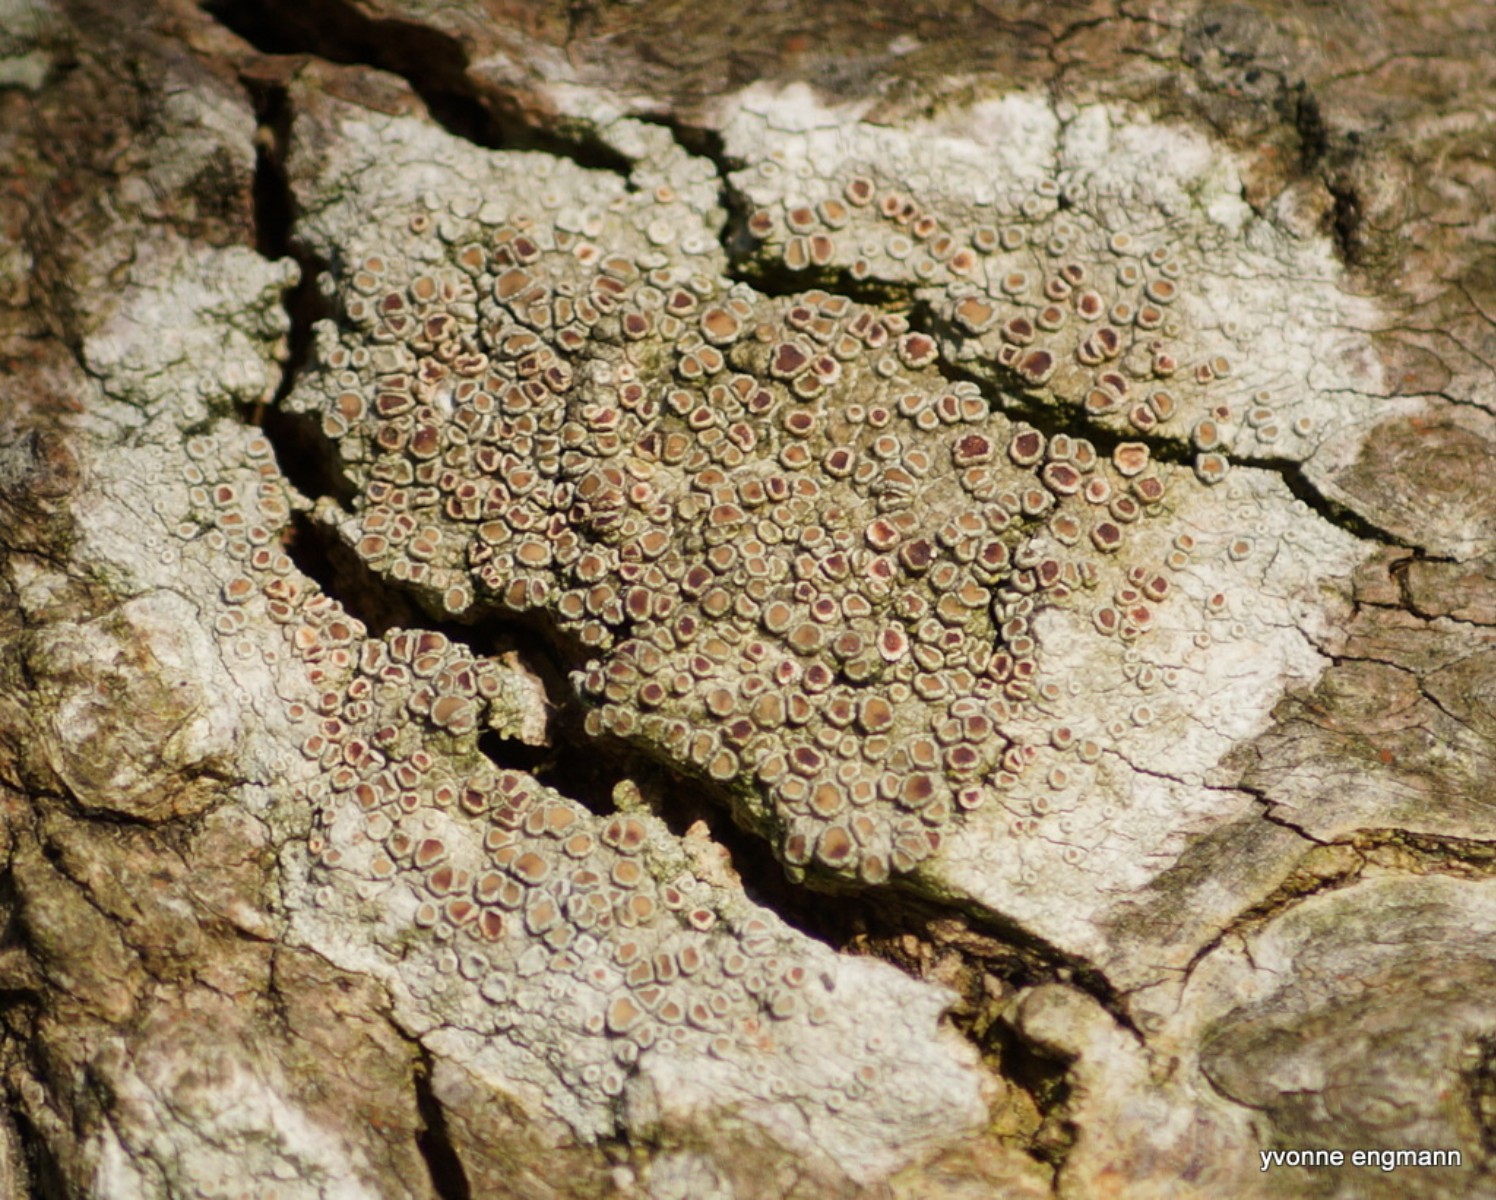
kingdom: Fungi
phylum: Ascomycota
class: Lecanoromycetes
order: Lecanorales
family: Lecanoraceae
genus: Lecanora
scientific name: Lecanora chlarotera
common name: brun kantskivelav
